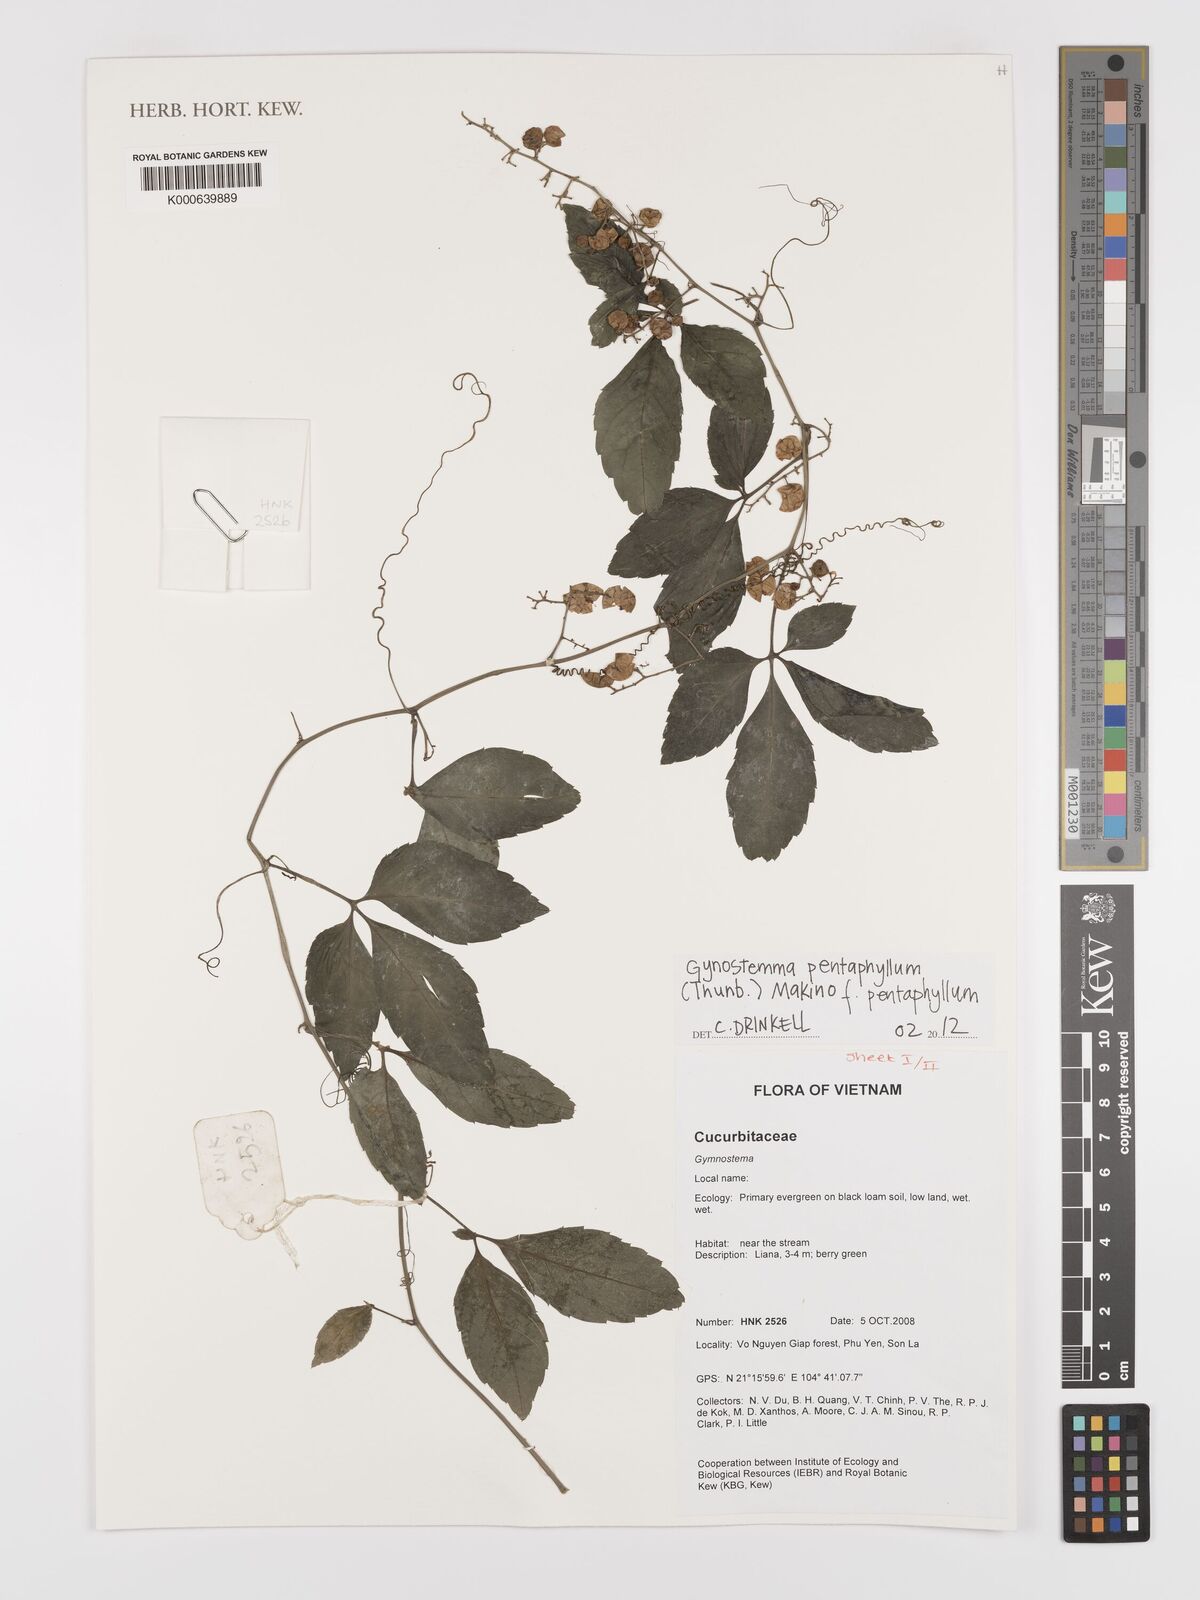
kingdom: Plantae
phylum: Tracheophyta
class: Magnoliopsida
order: Cucurbitales
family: Cucurbitaceae
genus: Gynostemma
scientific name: Gynostemma pentaphyllum
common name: Gynostemma
